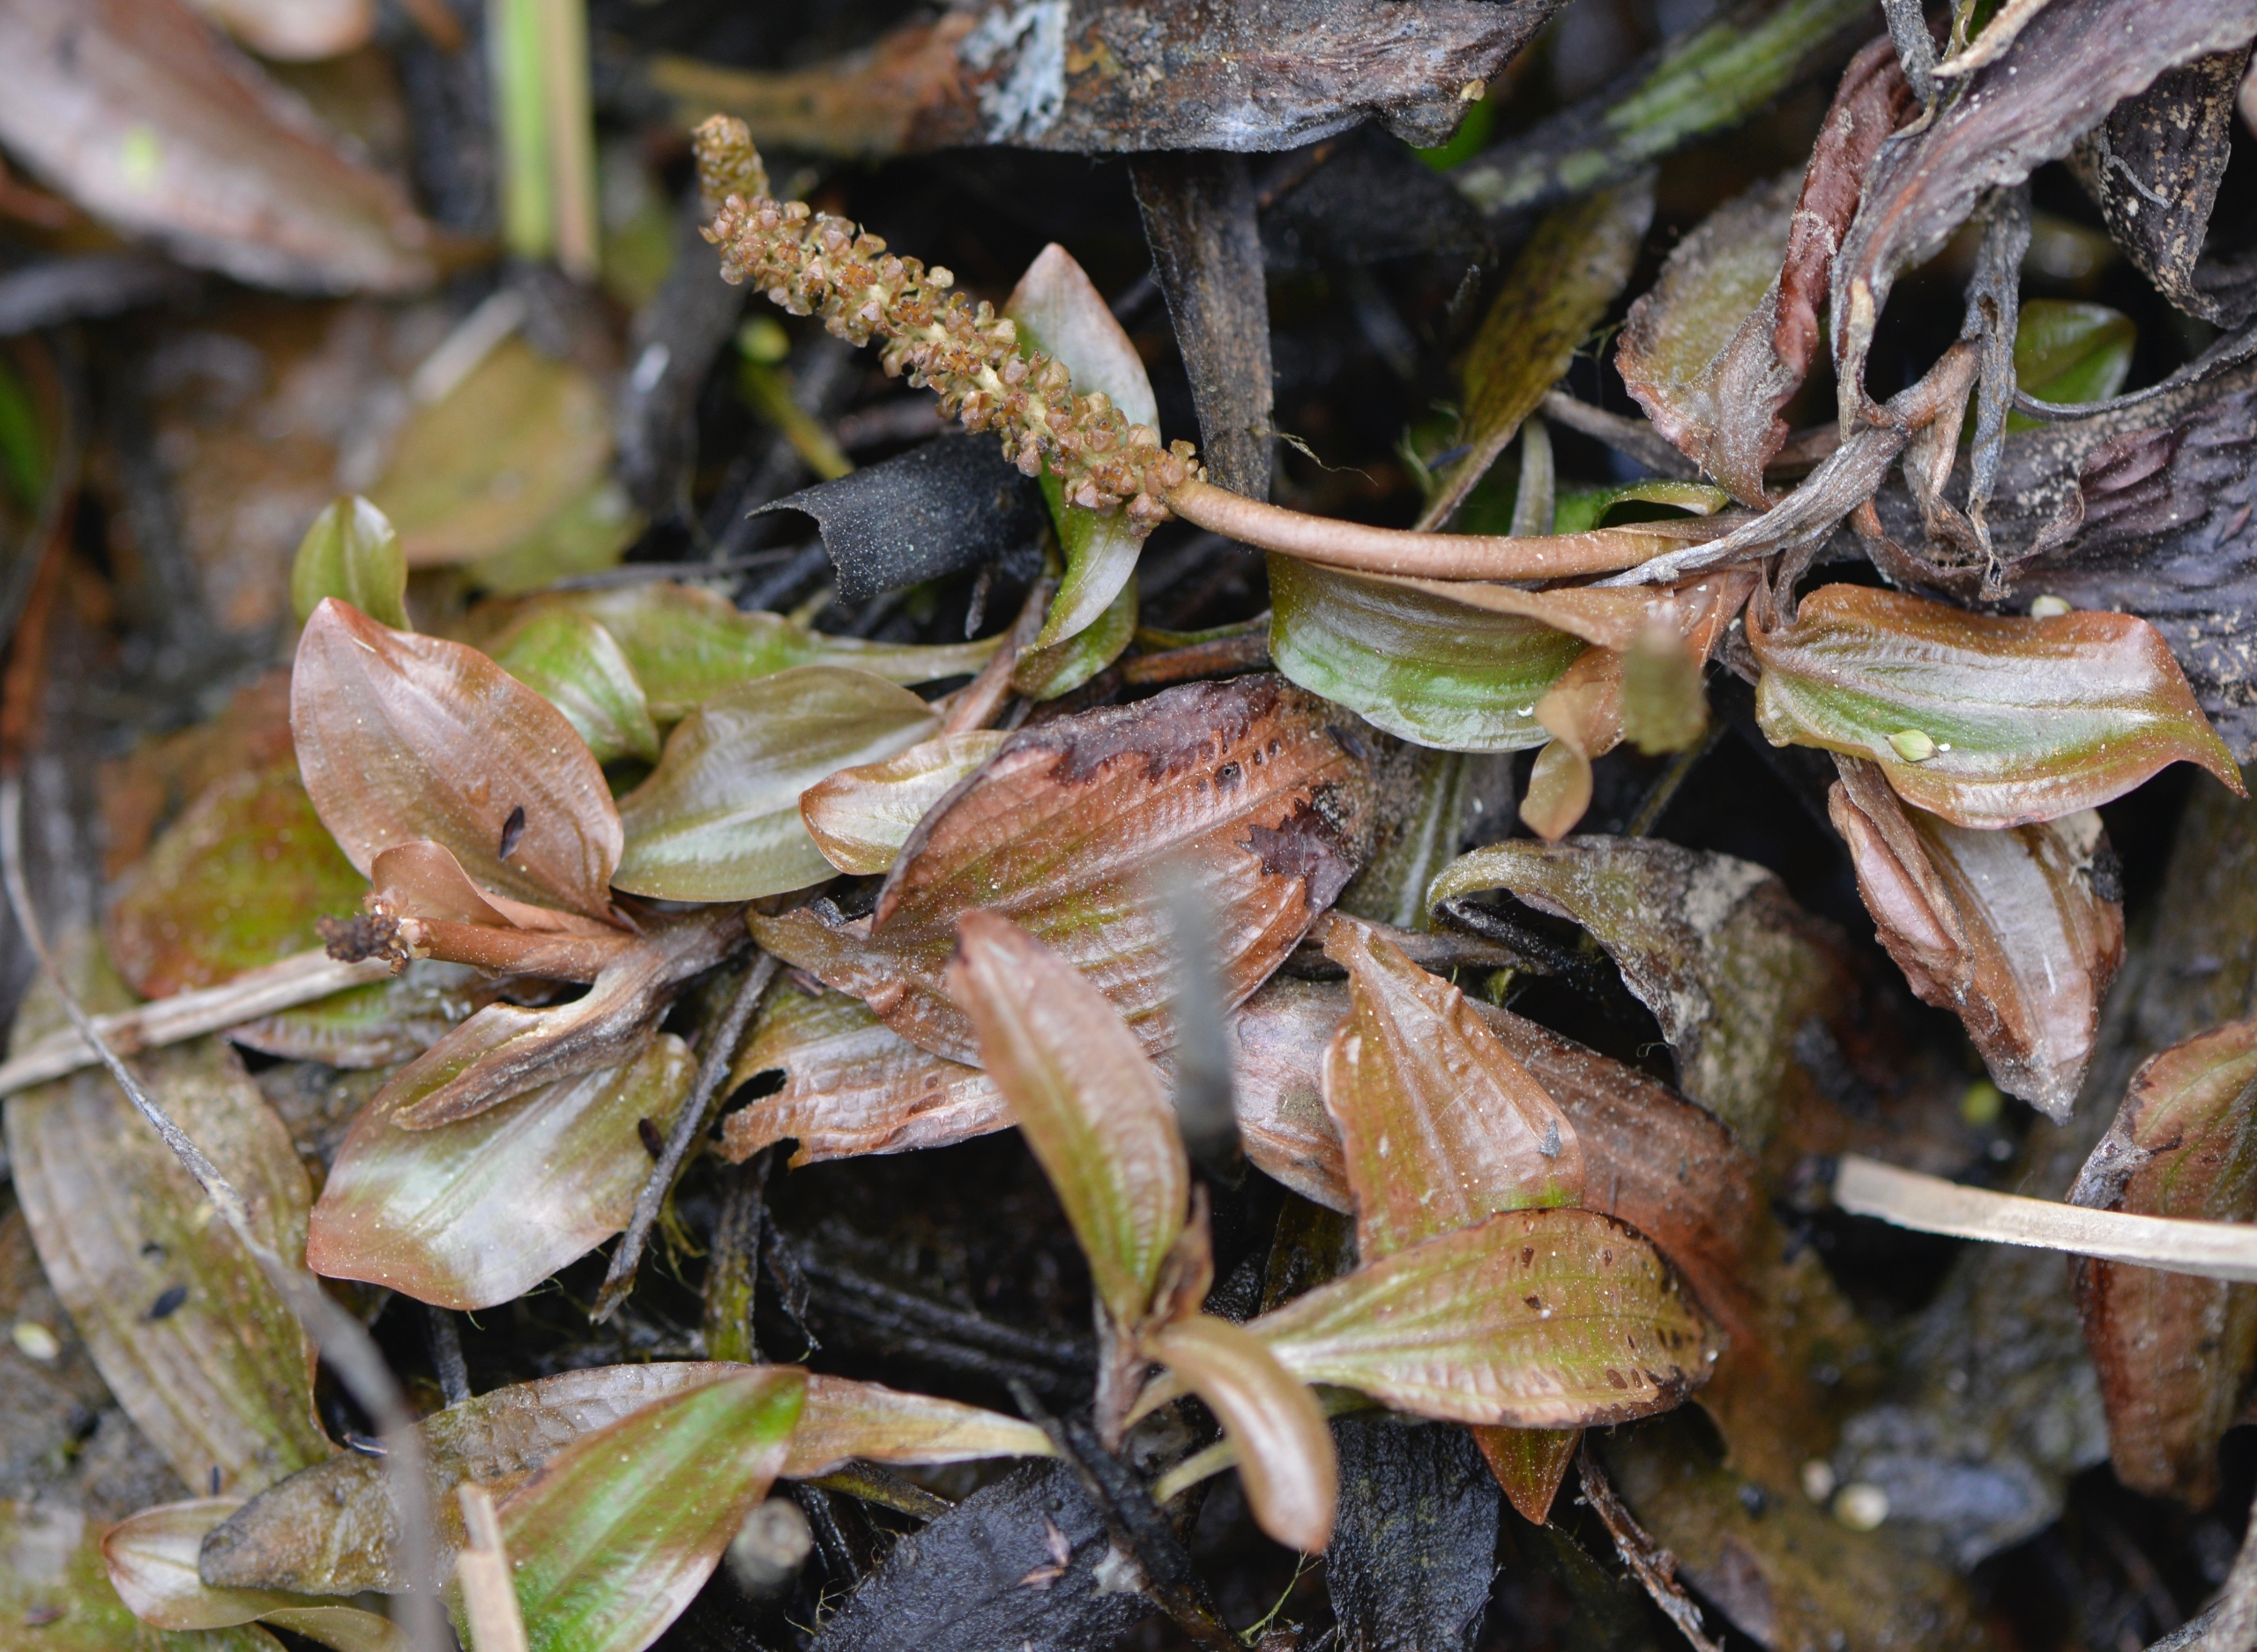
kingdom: Plantae
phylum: Tracheophyta
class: Liliopsida
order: Alismatales
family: Potamogetonaceae
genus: Potamogeton
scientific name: Potamogeton coloratus
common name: Vejbred-vandaks
